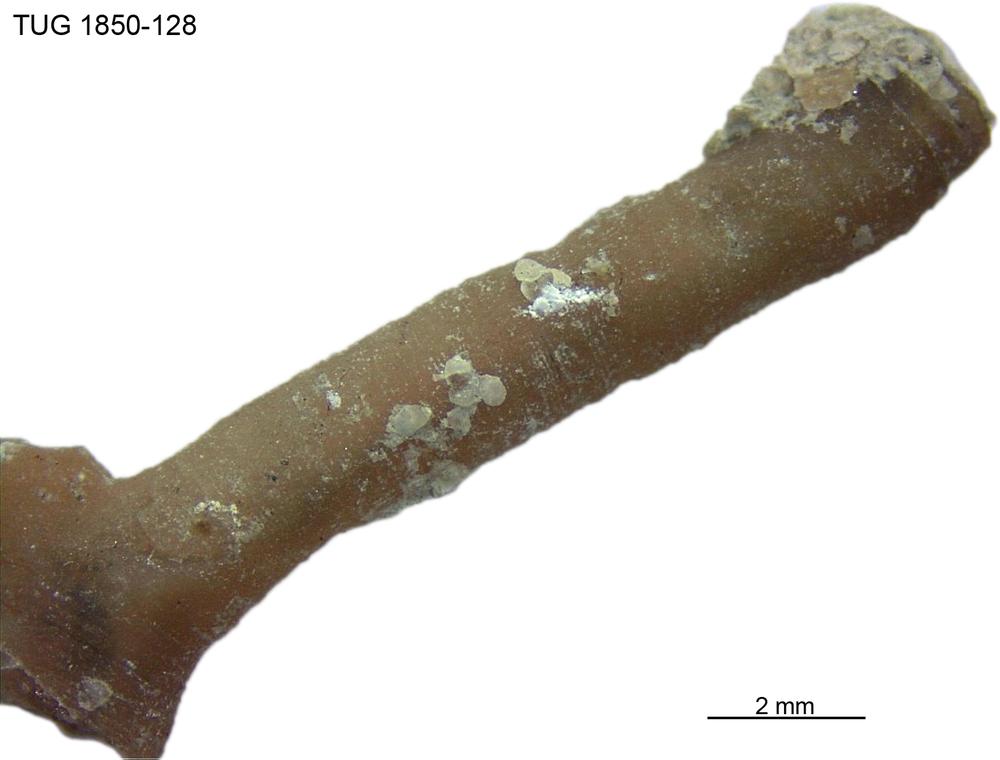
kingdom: Animalia
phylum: Bryozoa
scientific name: Bryozoa
